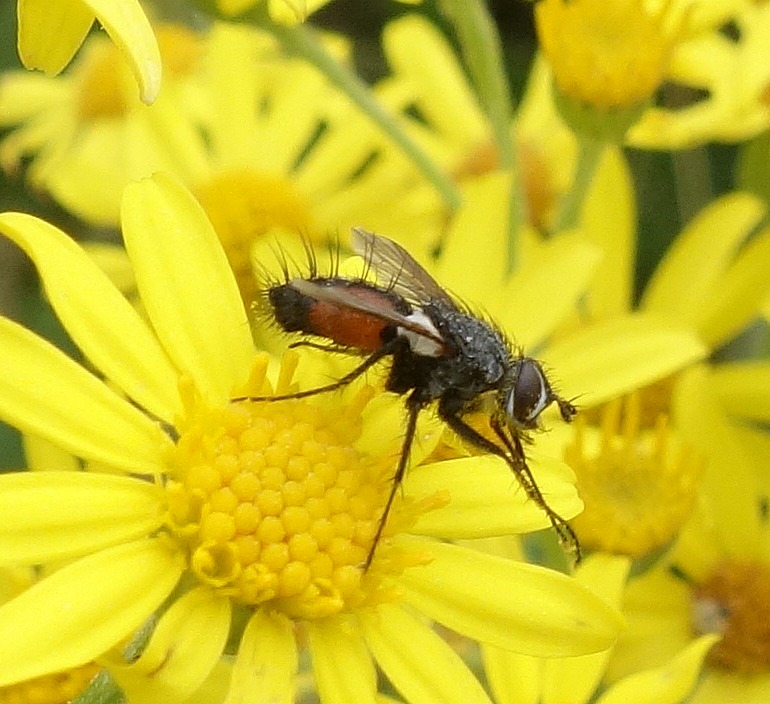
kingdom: Animalia
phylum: Arthropoda
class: Insecta
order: Diptera
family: Tachinidae
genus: Eriothrix
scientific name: Eriothrix rufomaculatus
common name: Rød snylteflue
